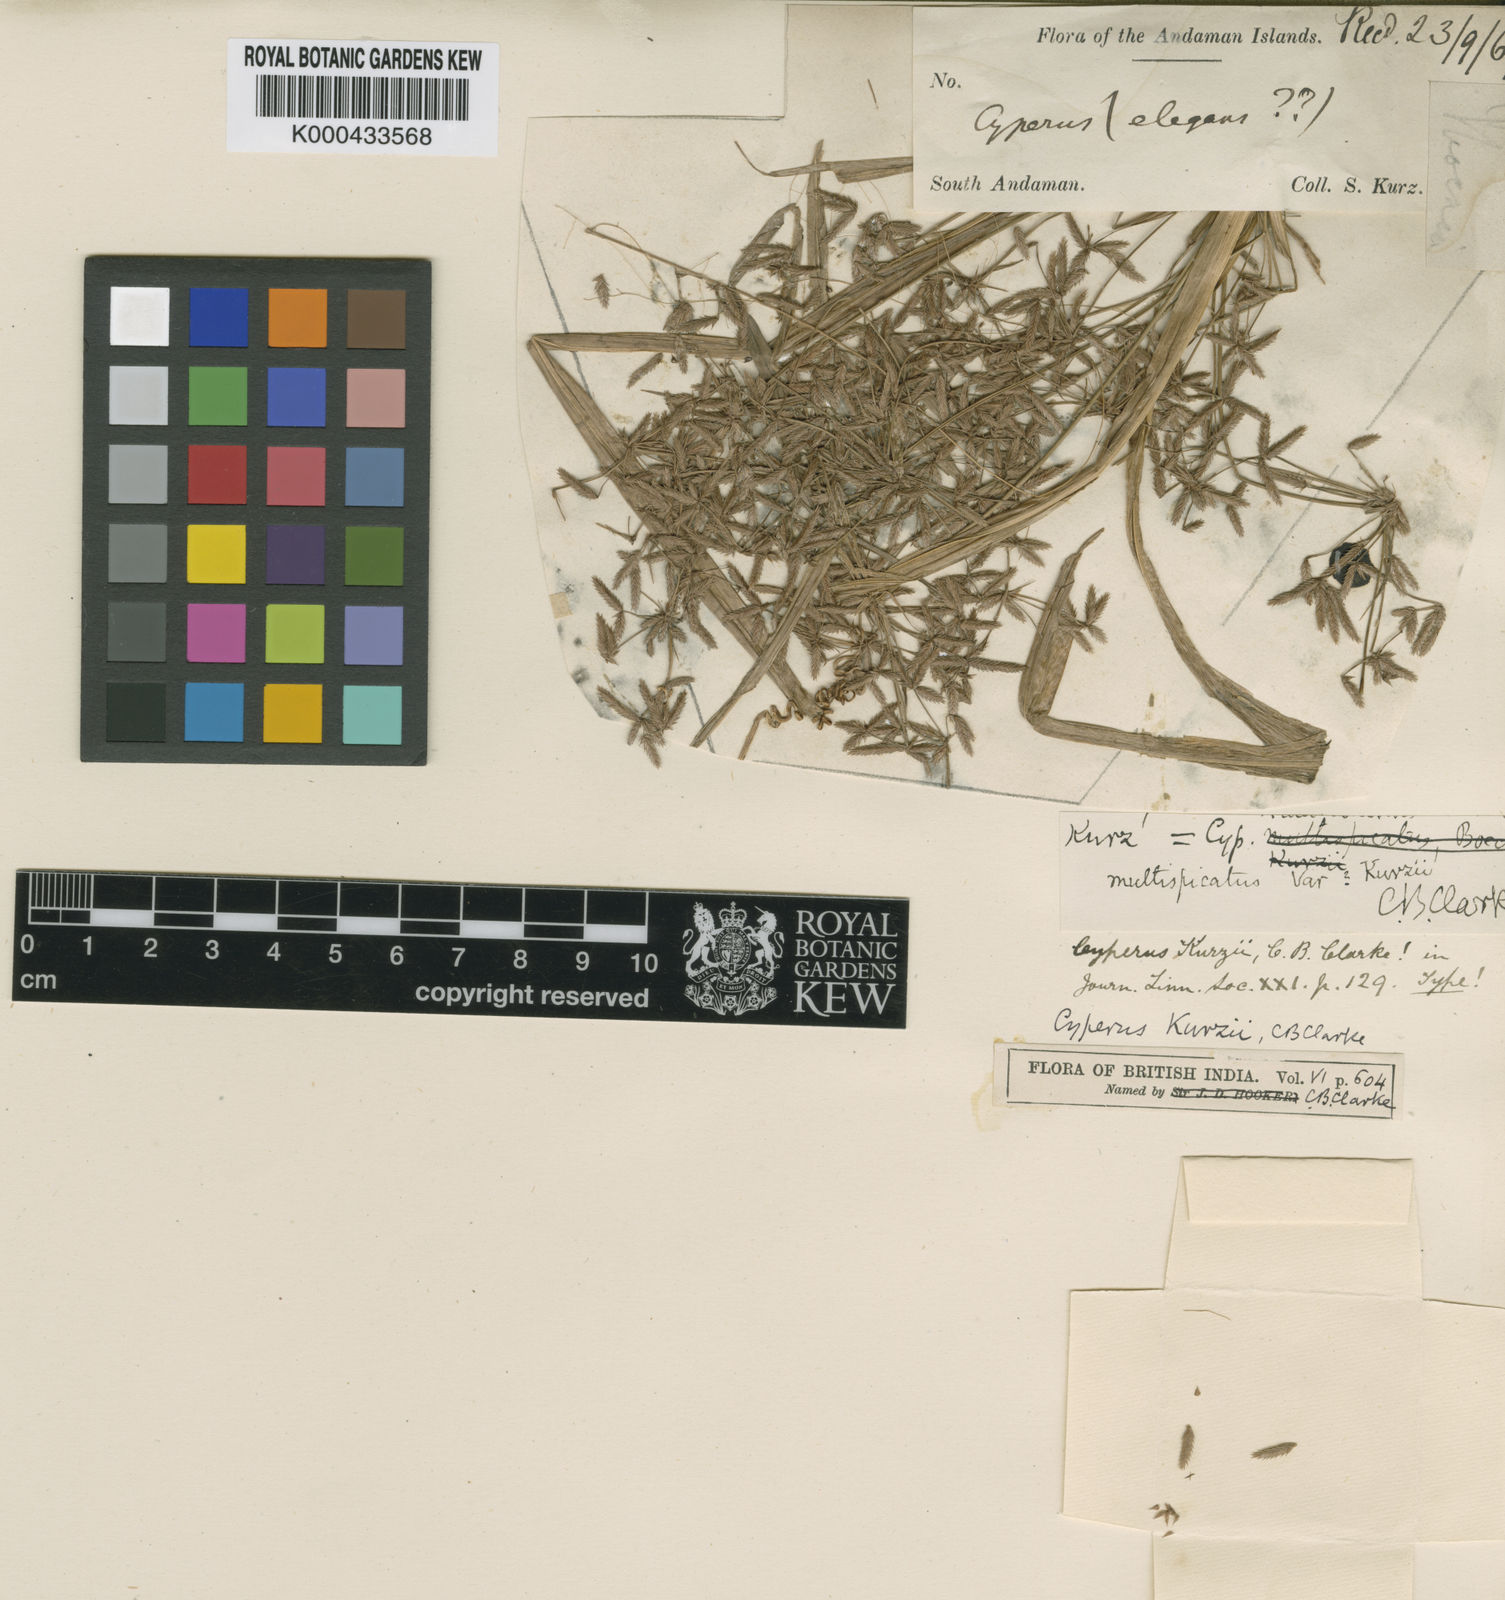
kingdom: Plantae
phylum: Tracheophyta
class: Liliopsida
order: Poales
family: Cyperaceae
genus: Cyperus
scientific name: Cyperus kurzii
